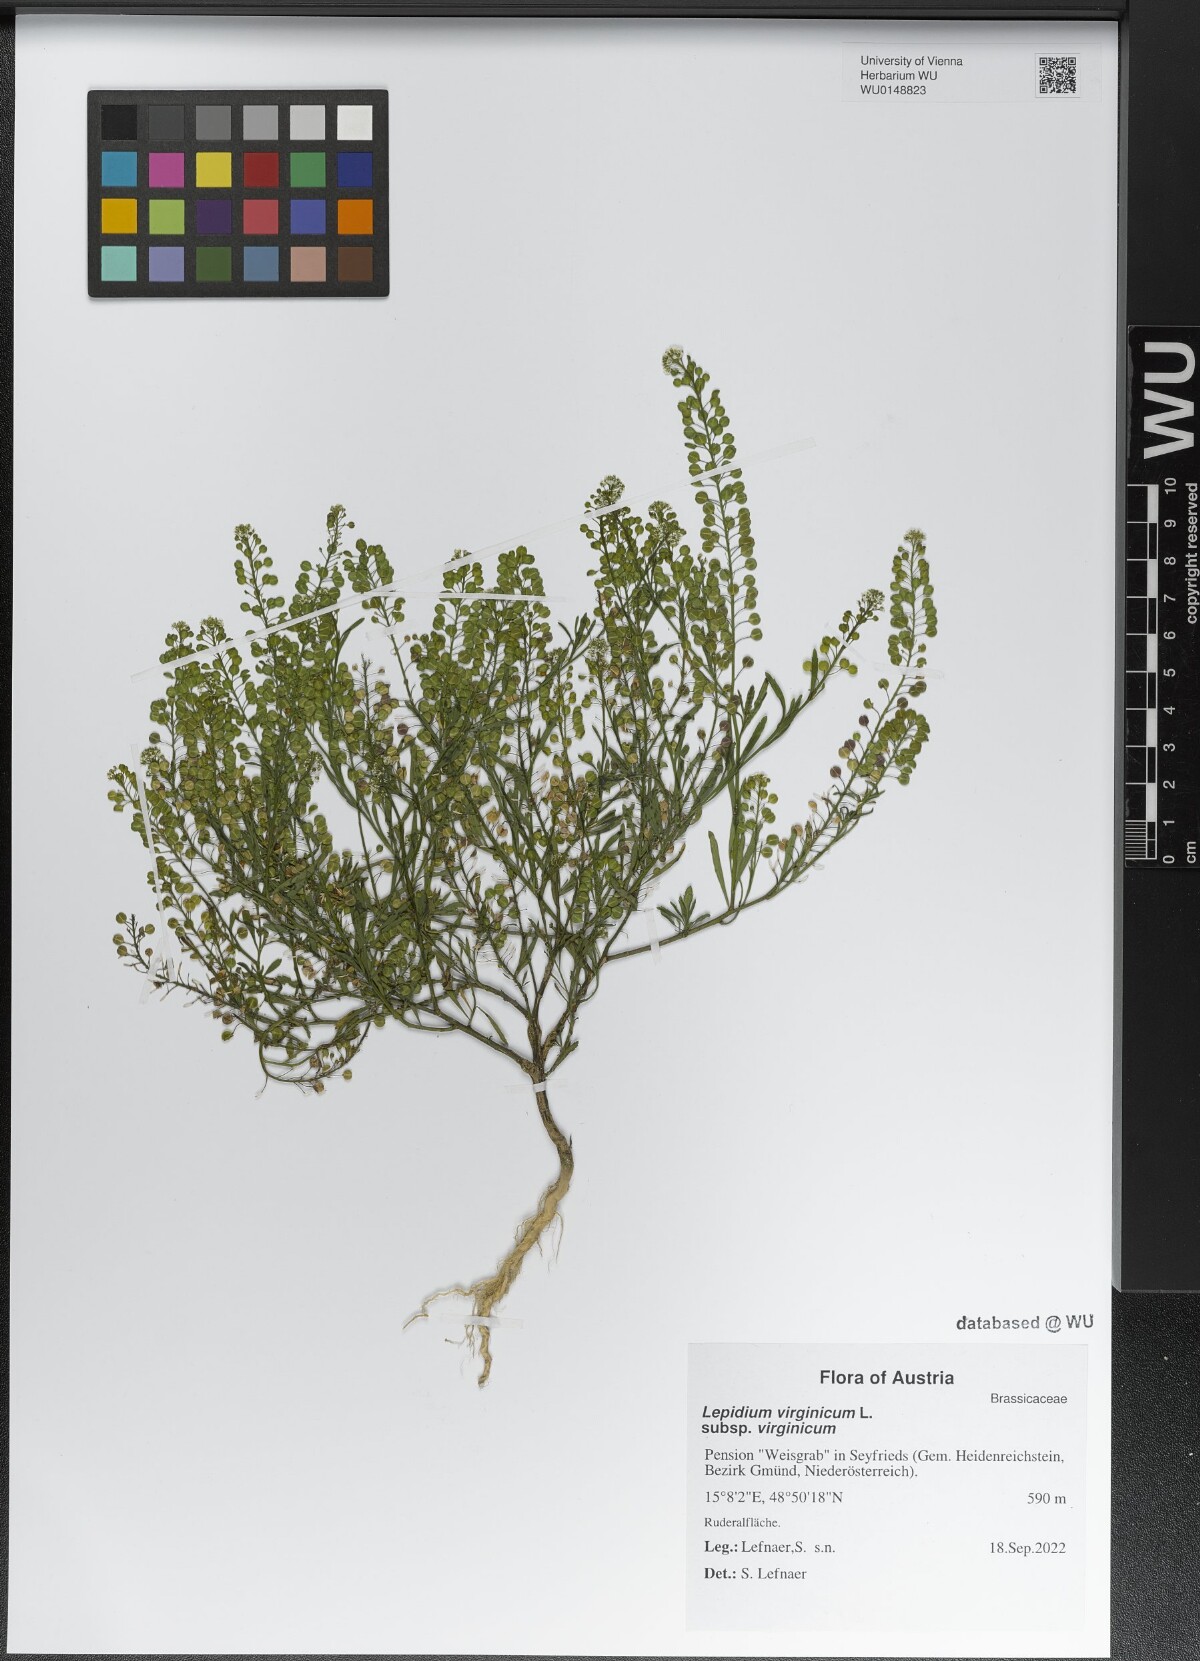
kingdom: Plantae
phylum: Tracheophyta
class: Magnoliopsida
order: Brassicales
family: Brassicaceae
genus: Lepidium
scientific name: Lepidium virginicum
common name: Least pepperwort
